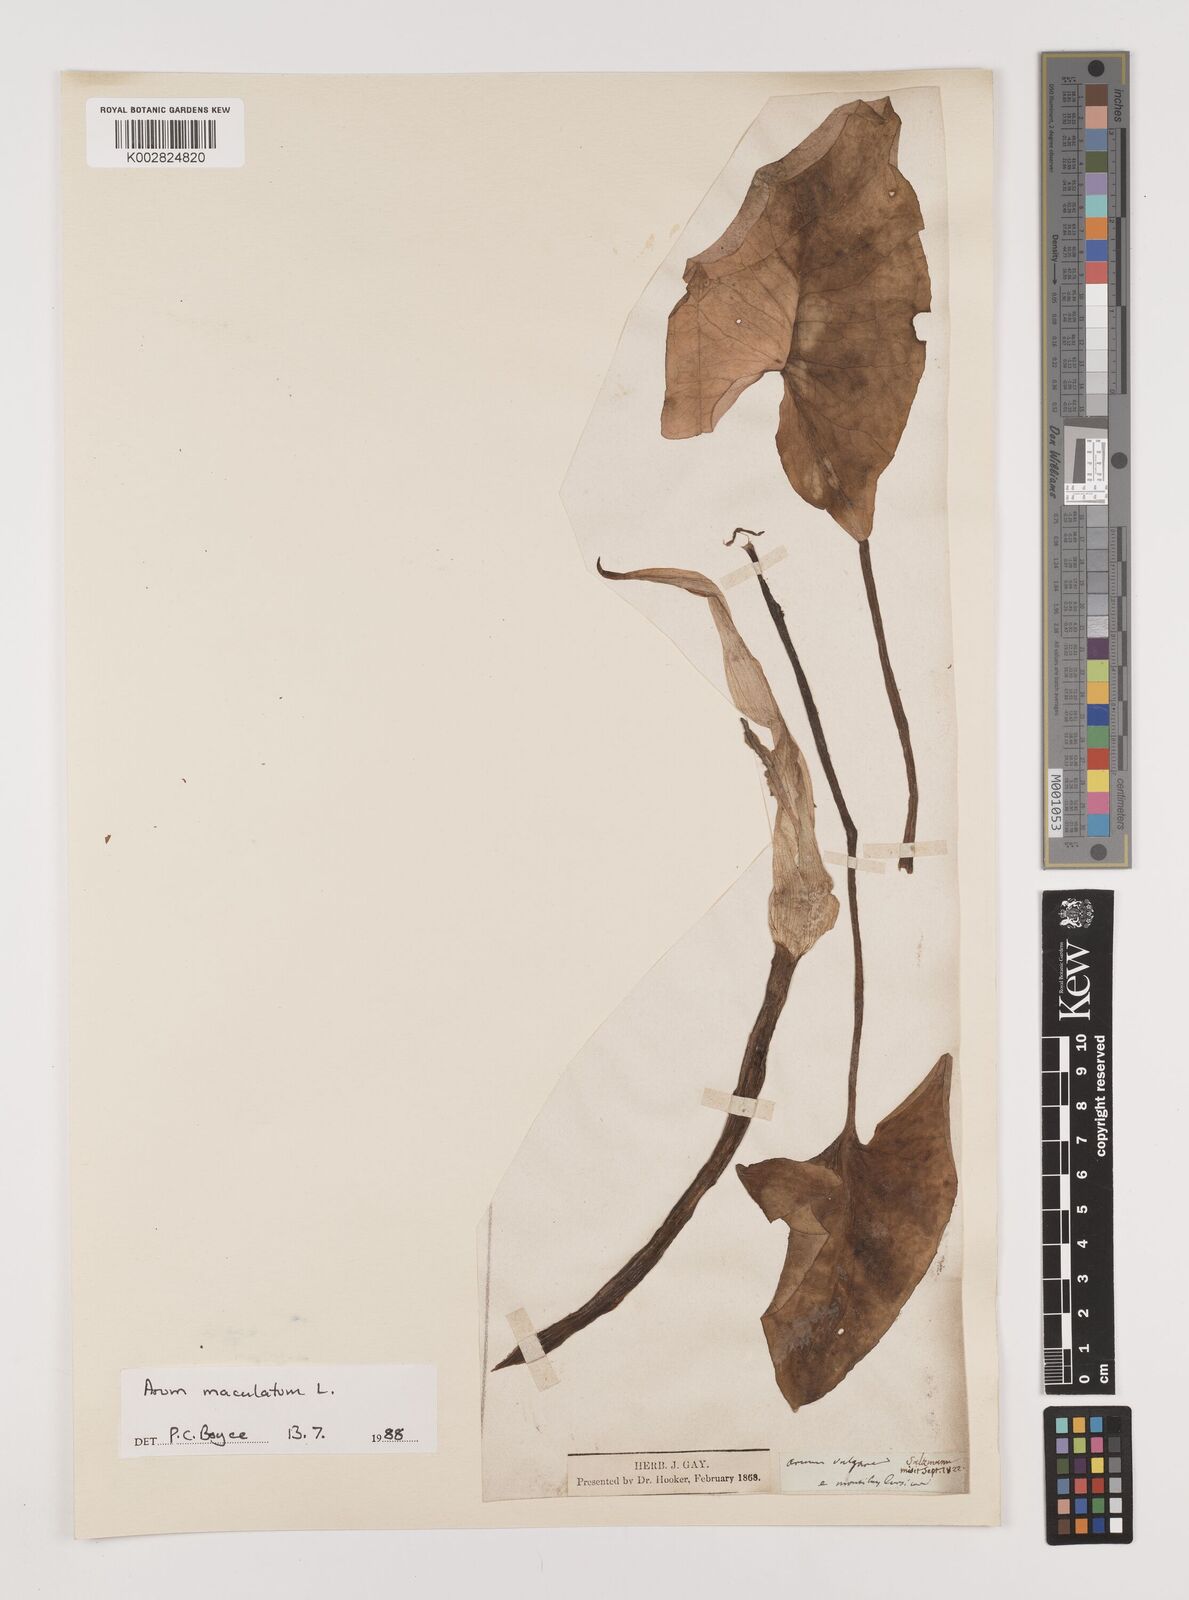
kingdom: Plantae
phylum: Tracheophyta
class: Liliopsida
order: Alismatales
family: Araceae
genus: Arum
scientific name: Arum maculatum
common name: Lords-and-ladies
